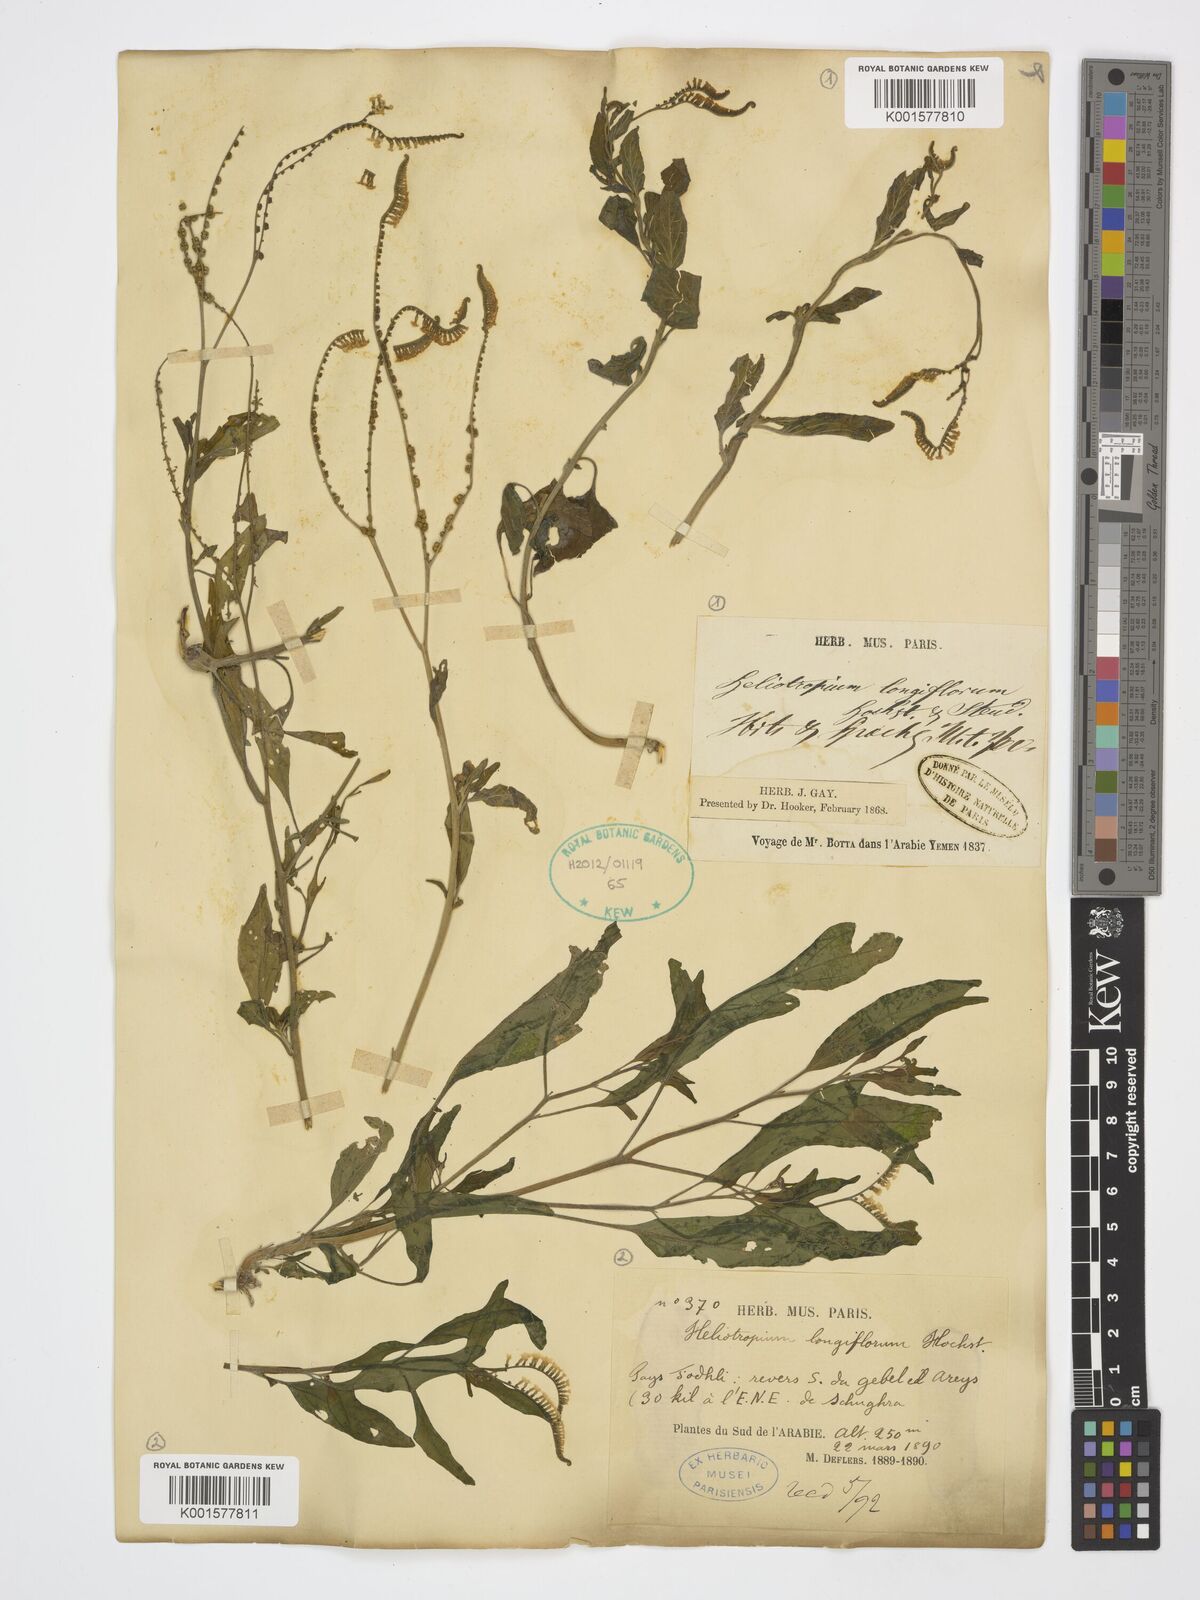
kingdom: Plantae
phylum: Tracheophyta
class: Magnoliopsida
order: Boraginales
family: Heliotropiaceae
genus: Heliotropium
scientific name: Heliotropium longiflorum
